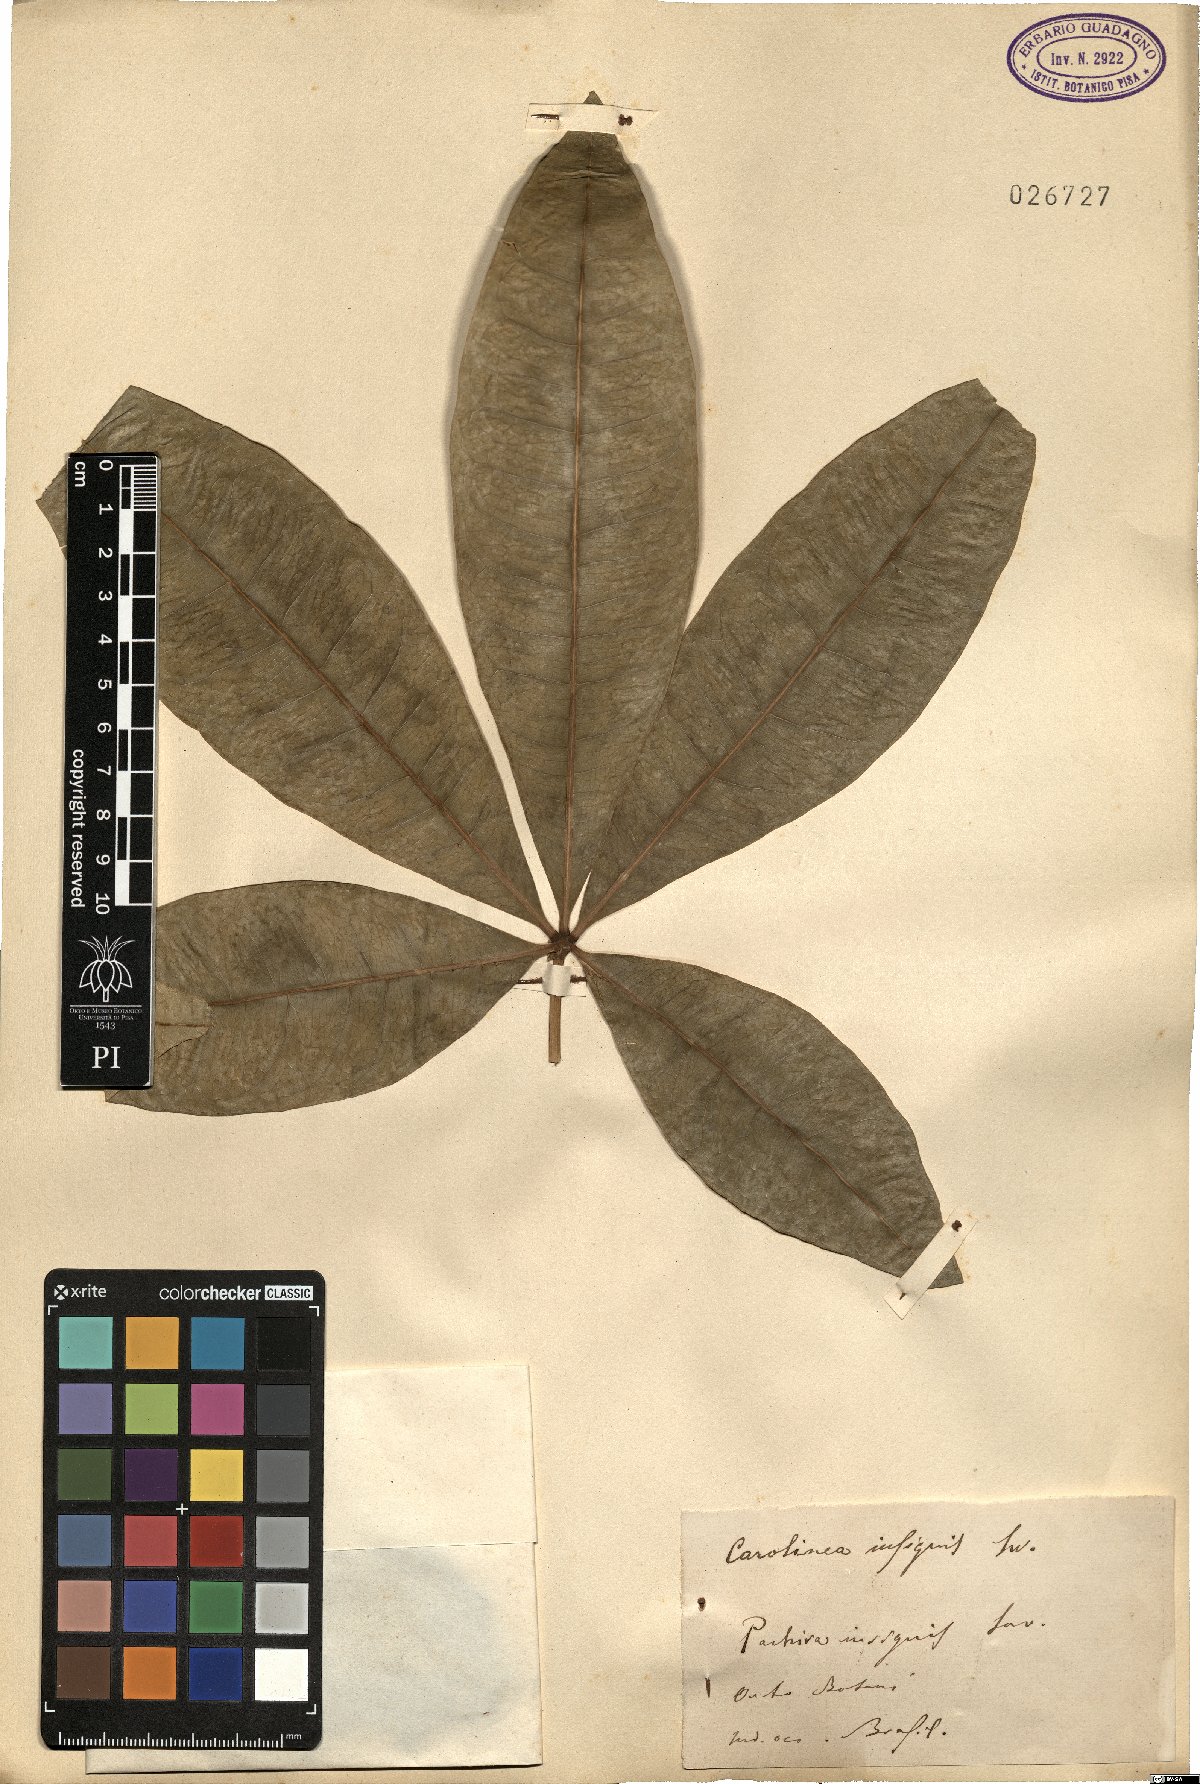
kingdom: Plantae
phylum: Tracheophyta
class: Magnoliopsida
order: Malvales
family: Malvaceae
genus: Pachira
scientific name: Pachira insignis
